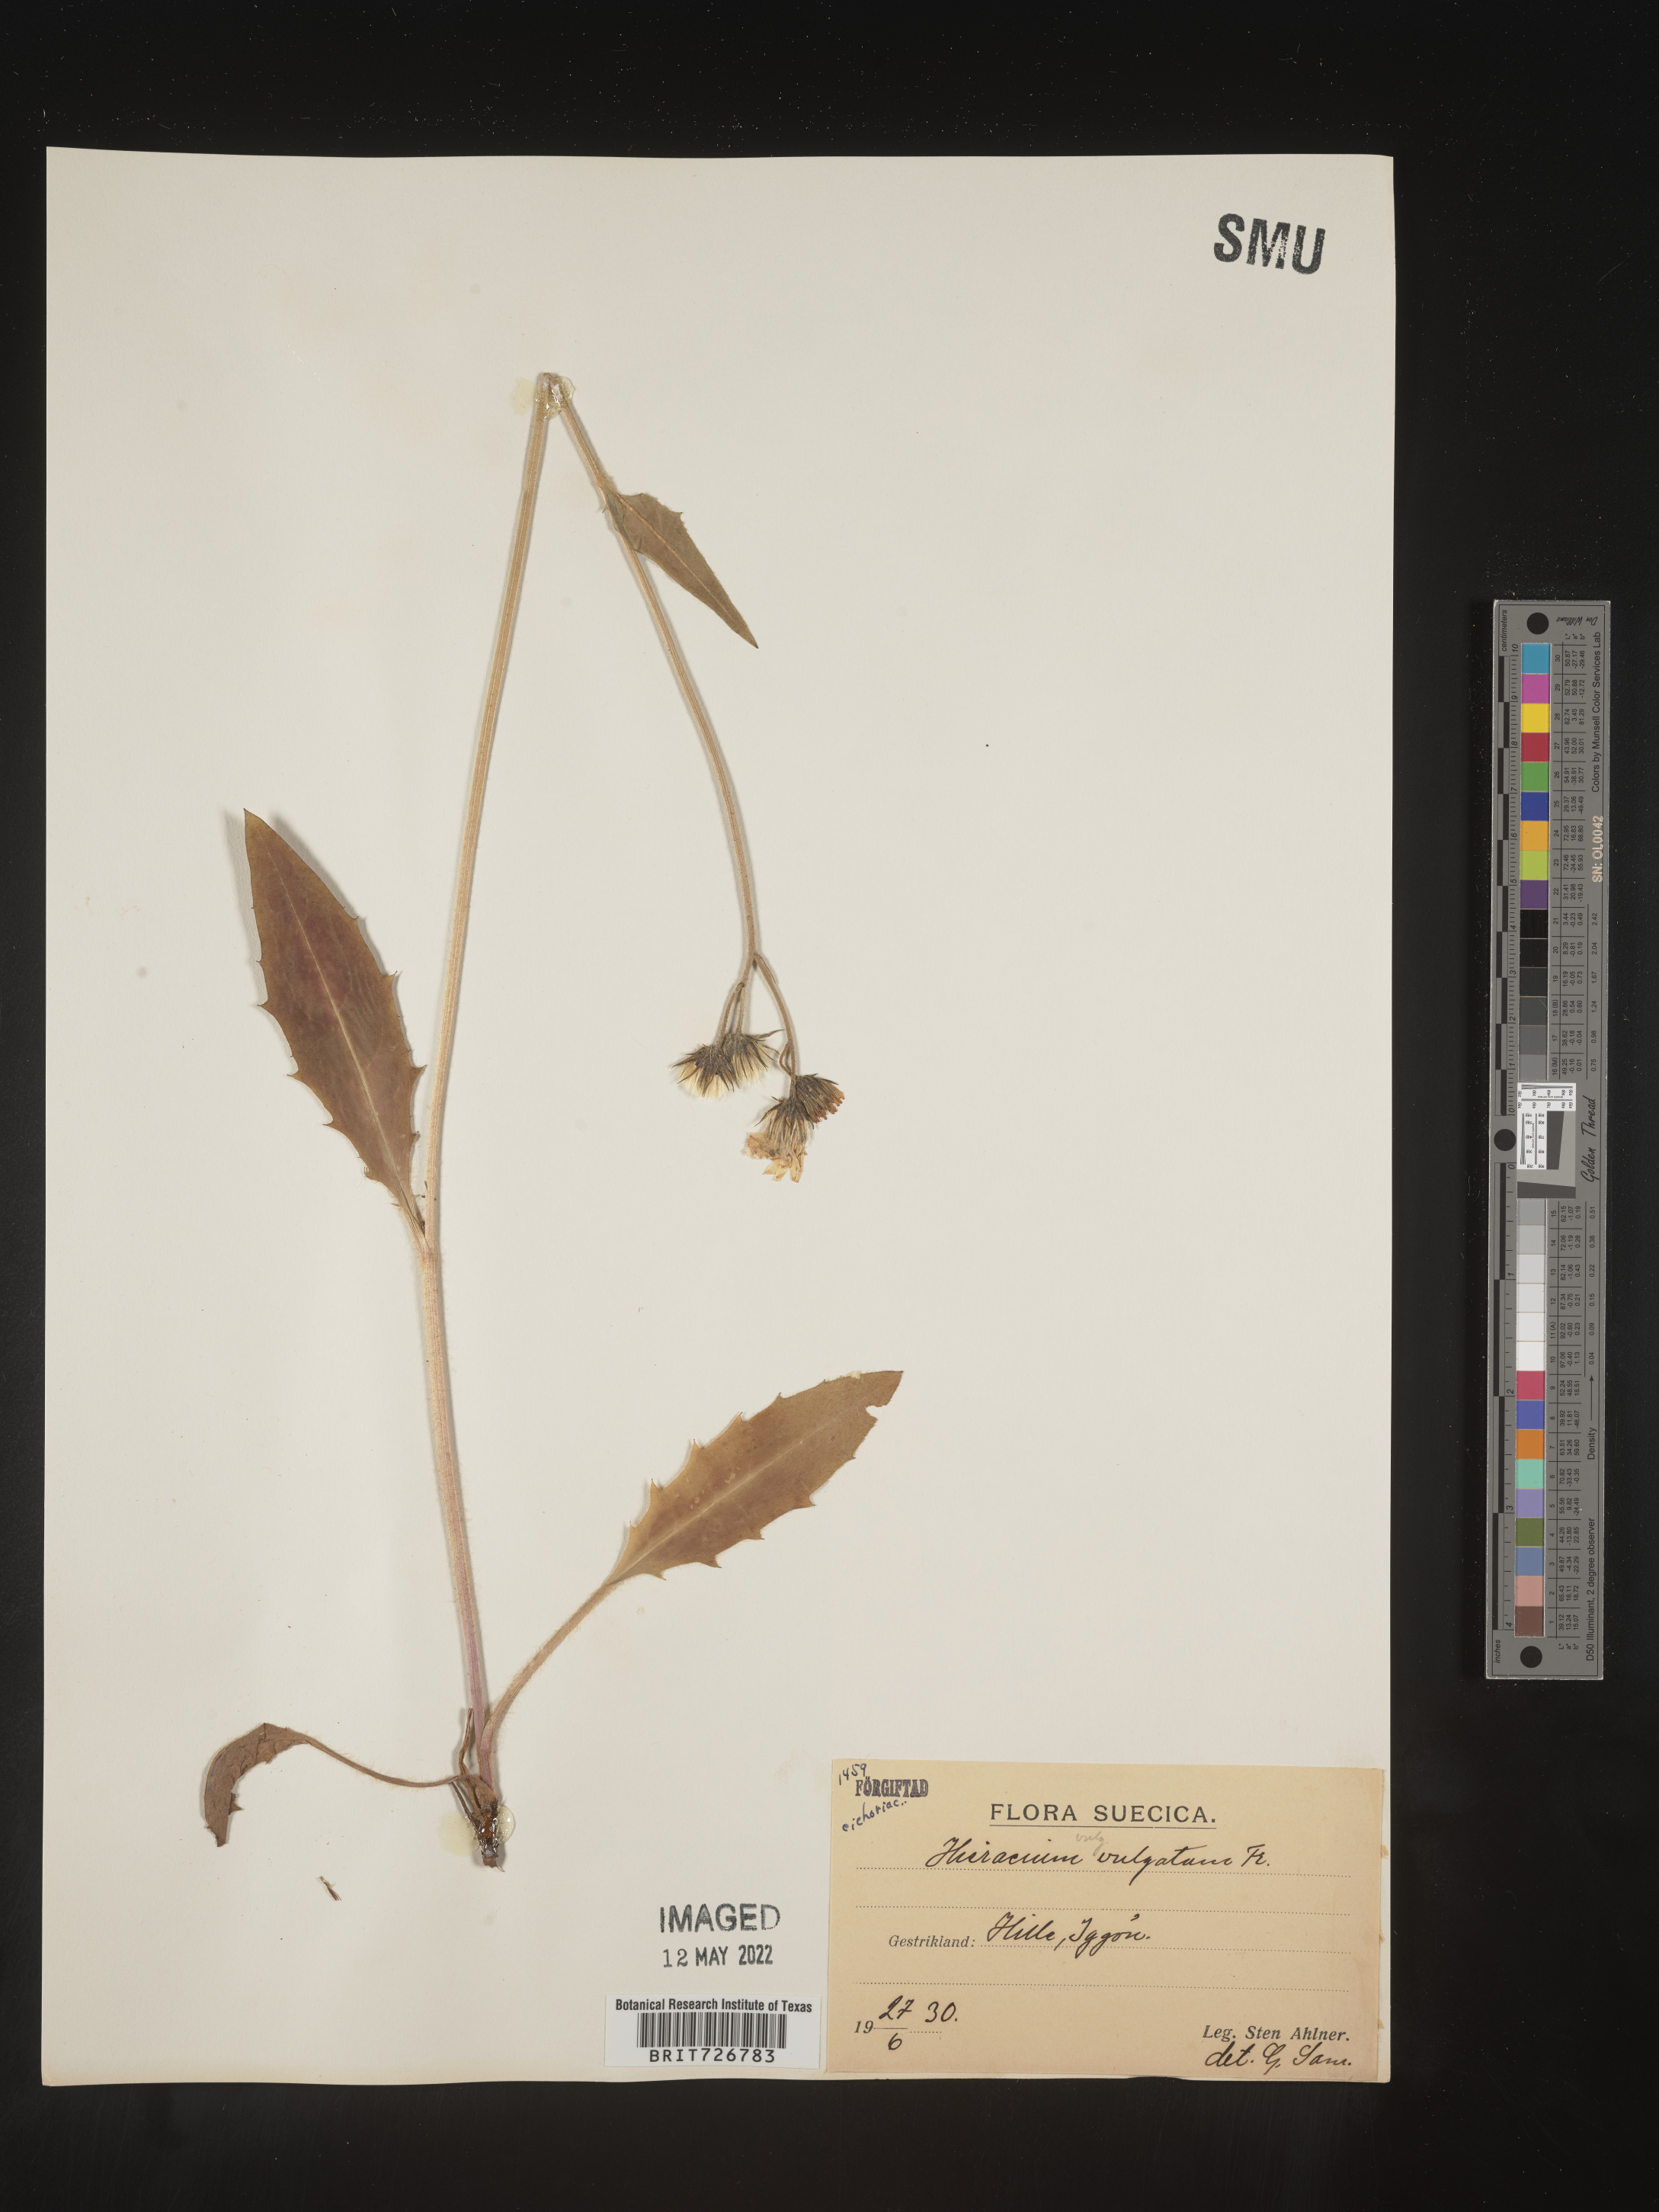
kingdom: Plantae
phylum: Tracheophyta
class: Magnoliopsida
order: Asterales
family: Asteraceae
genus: Hieracium
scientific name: Hieracium
